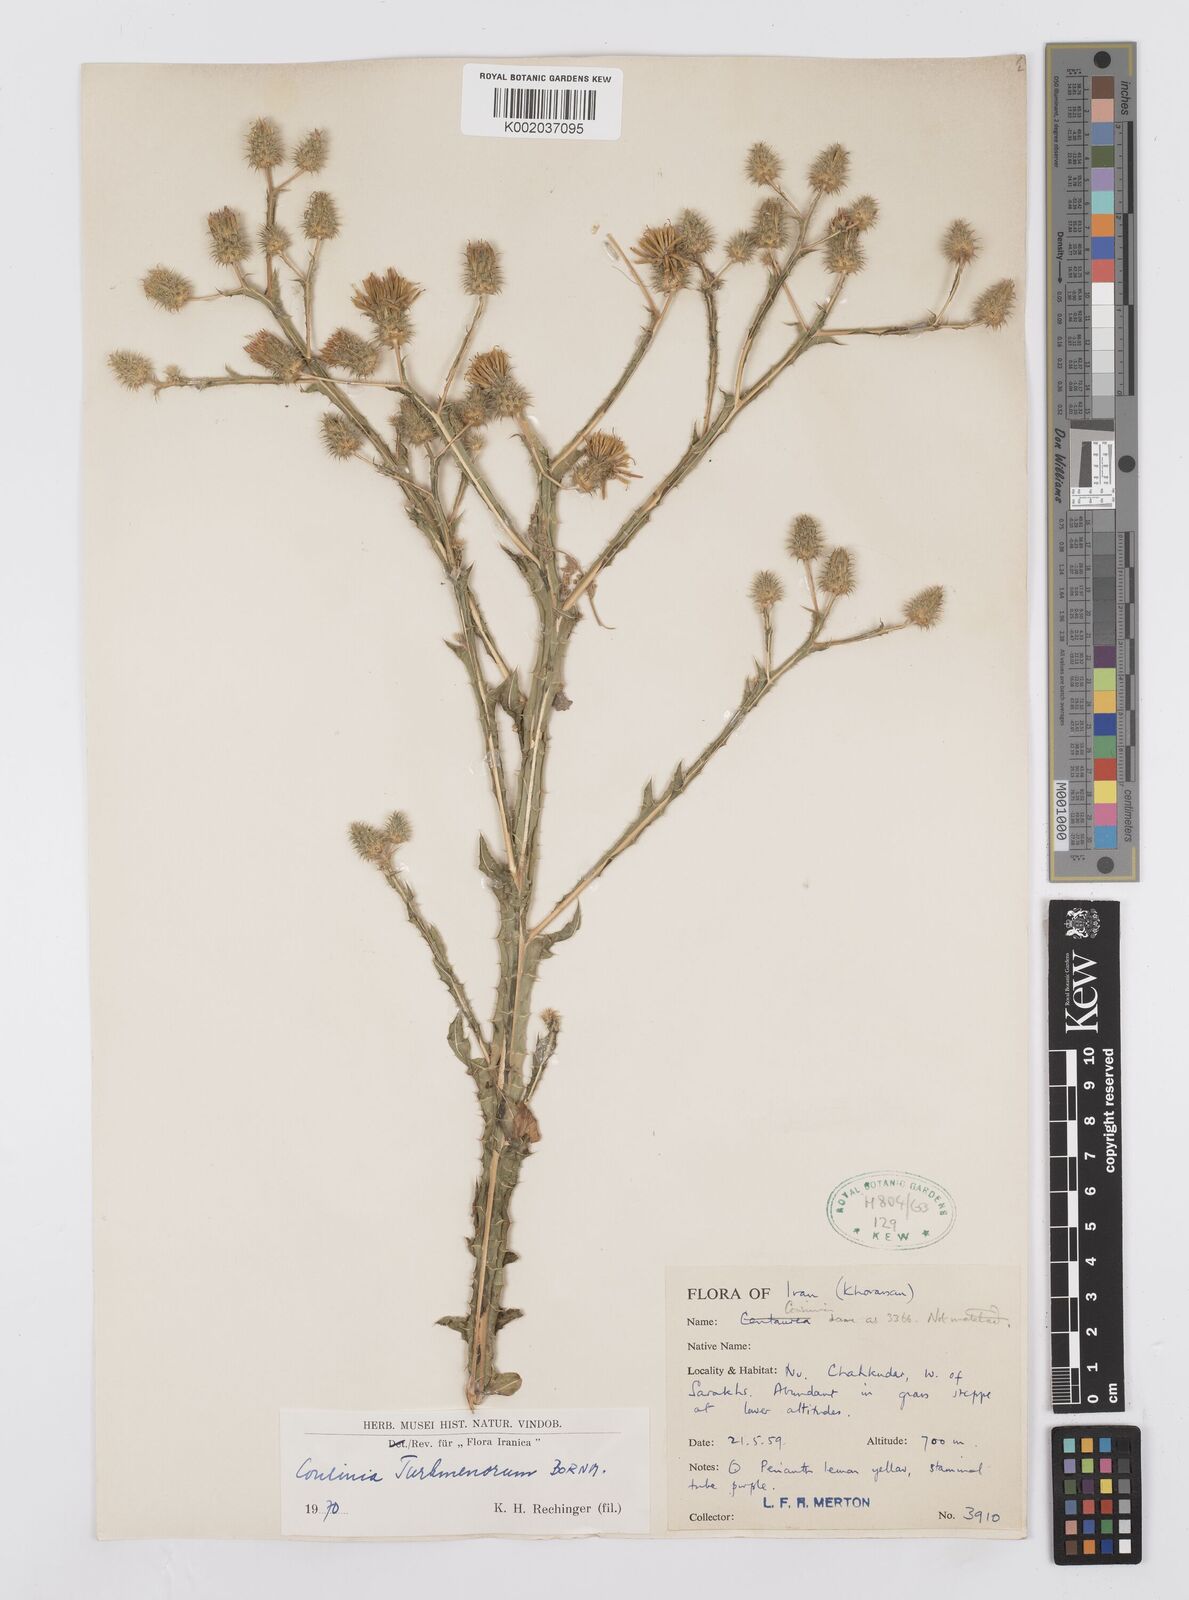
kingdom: Plantae
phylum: Tracheophyta
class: Magnoliopsida
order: Asterales
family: Asteraceae
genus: Cousinia
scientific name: Cousinia turkmenorum
